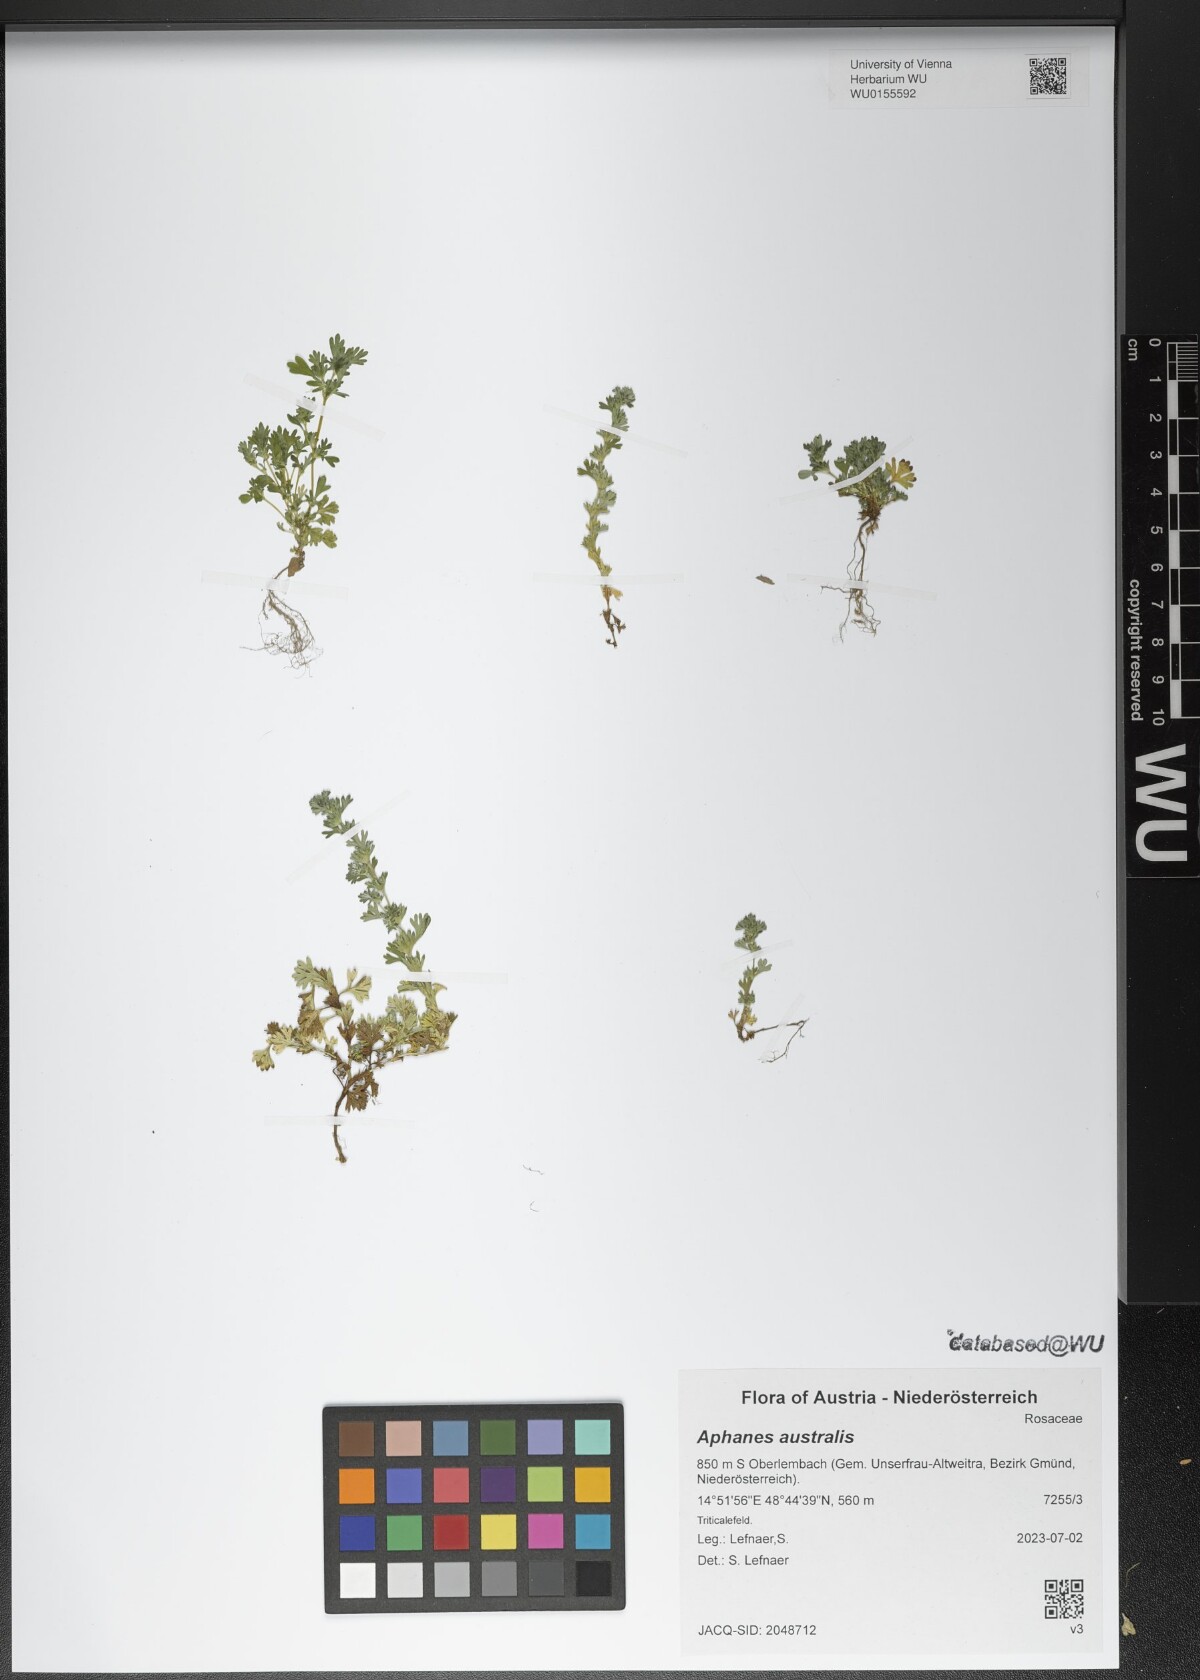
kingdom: Plantae
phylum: Tracheophyta
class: Magnoliopsida
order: Rosales
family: Rosaceae
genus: Aphanes
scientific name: Aphanes australis
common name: Slender parsley-piert
